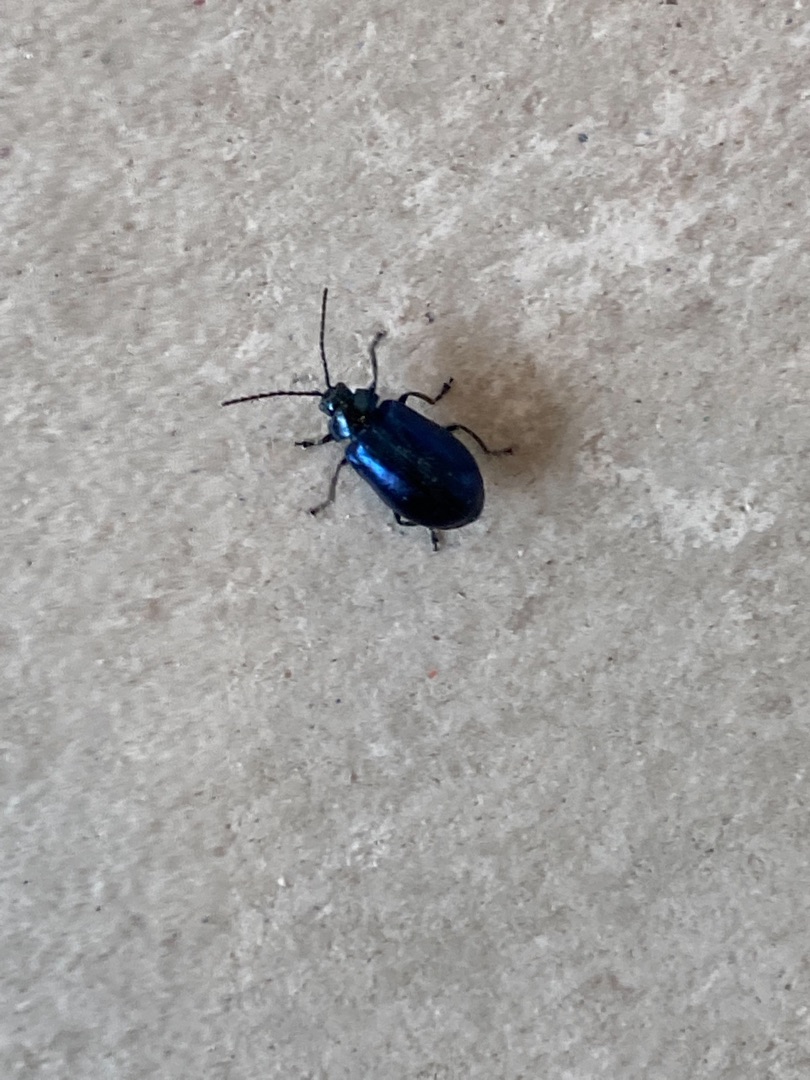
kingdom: Animalia
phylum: Arthropoda
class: Insecta
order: Coleoptera
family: Chrysomelidae
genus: Agelastica
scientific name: Agelastica alni
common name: Ellebladbille
